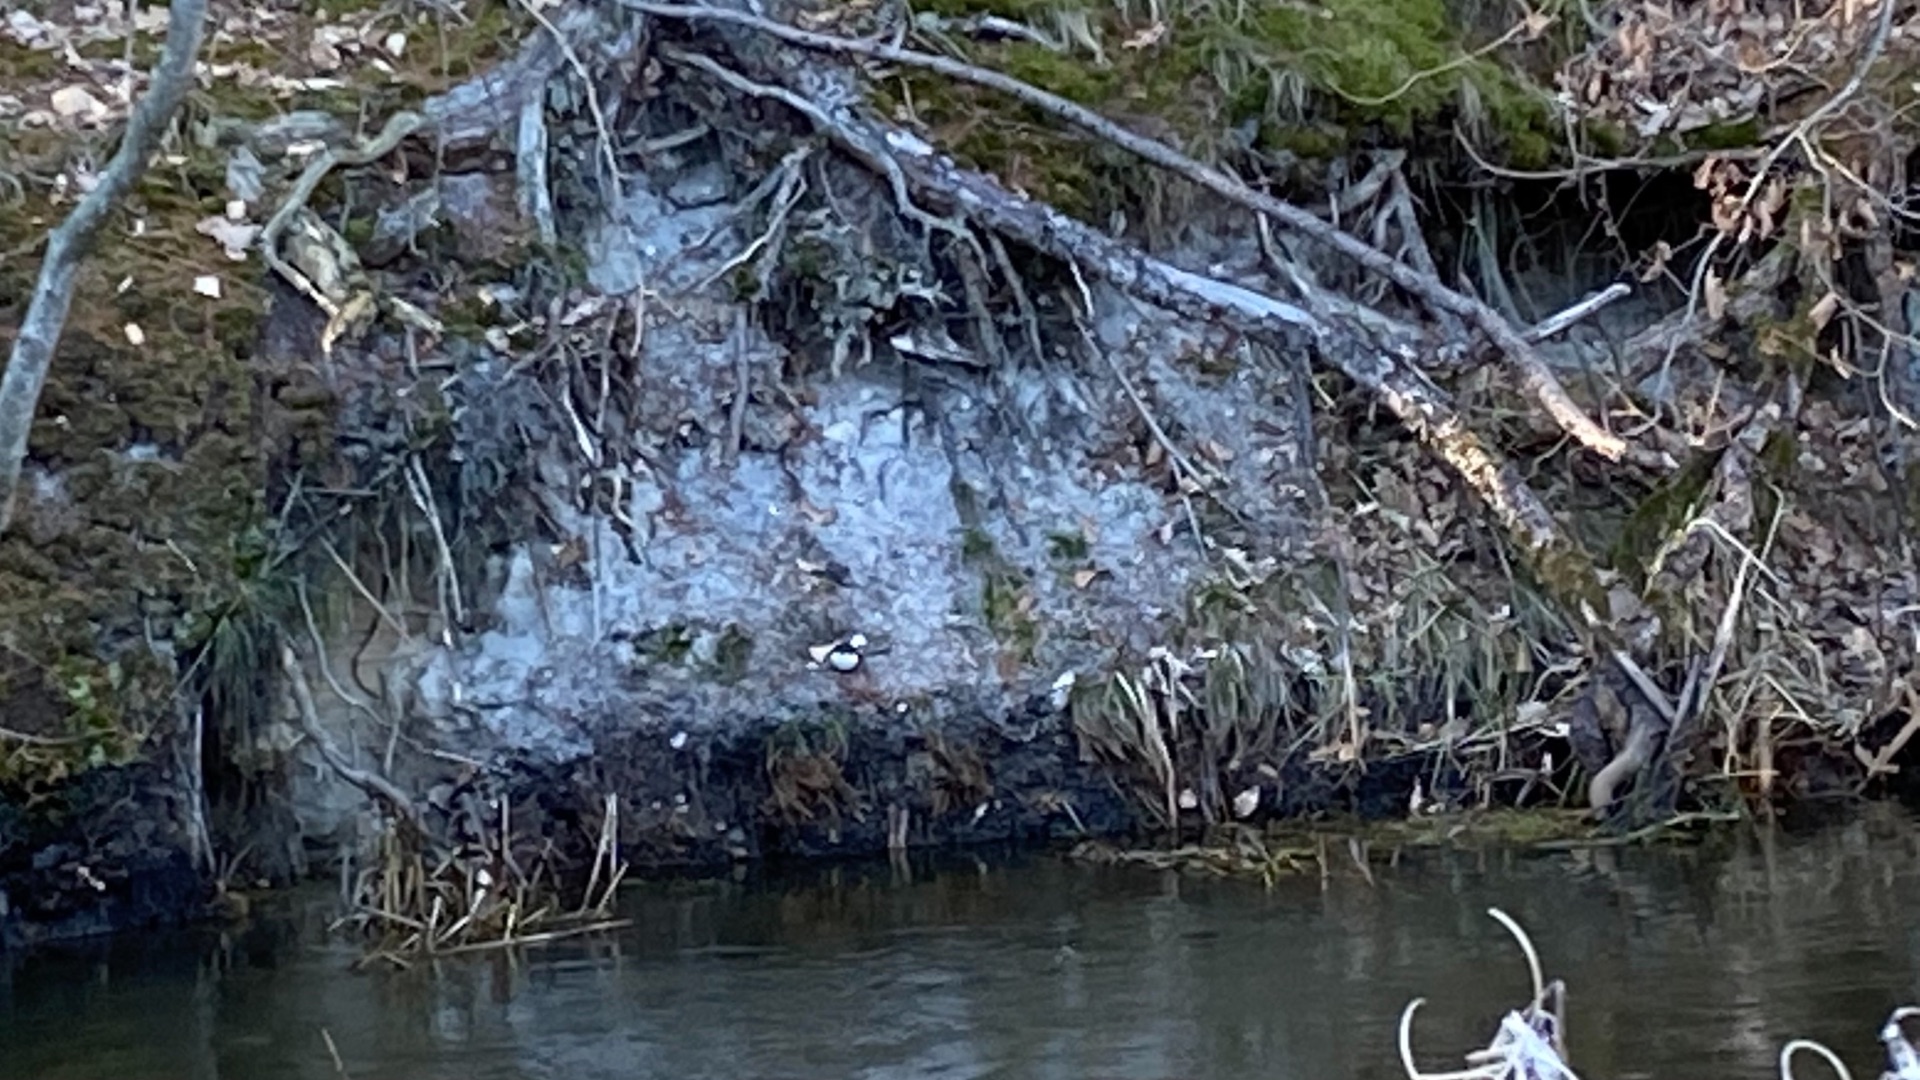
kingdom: Animalia
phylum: Chordata
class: Aves
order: Passeriformes
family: Cinclidae
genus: Cinclus
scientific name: Cinclus cinclus
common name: Vandstær
